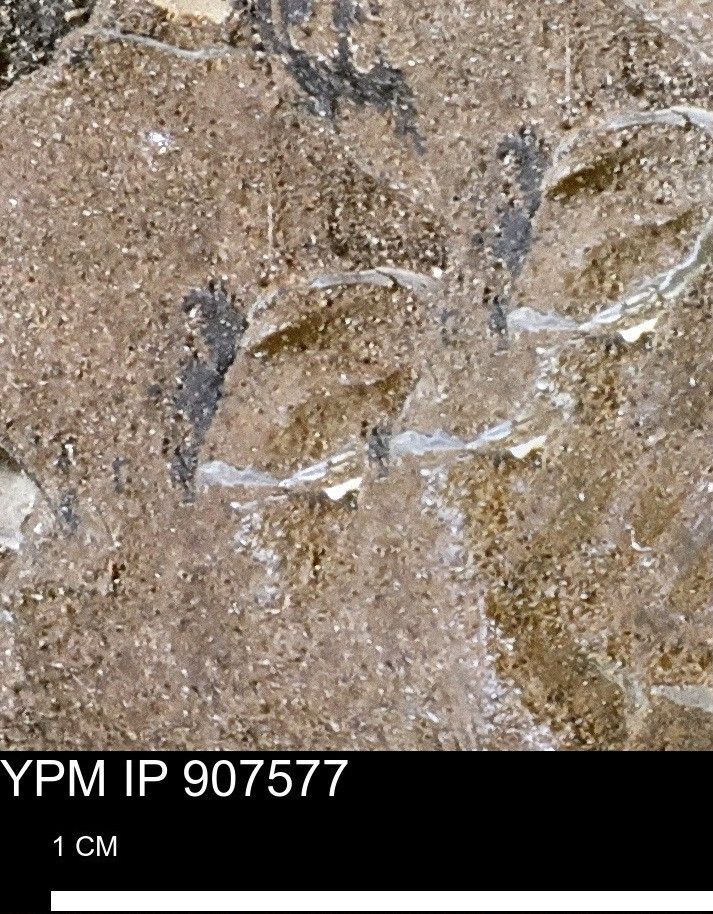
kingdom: Animalia
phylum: Mollusca
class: Bivalvia
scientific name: Bivalvia
